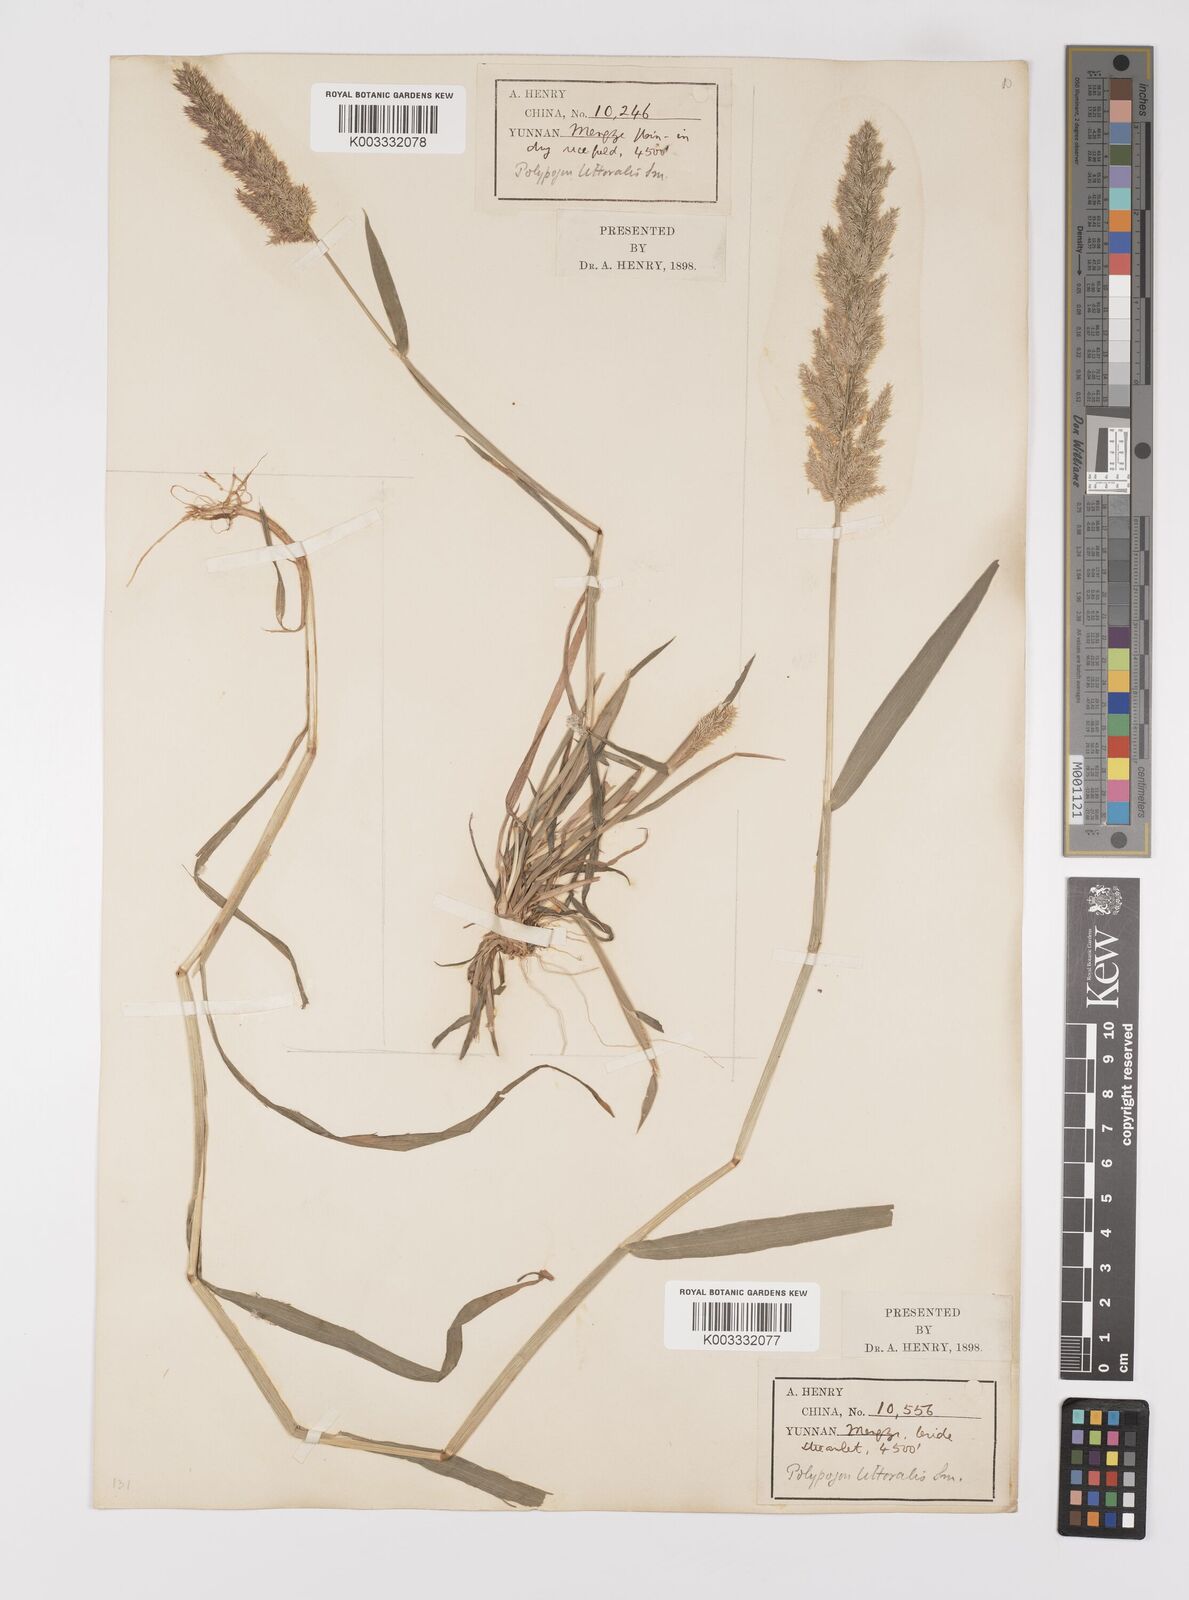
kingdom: Plantae
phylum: Tracheophyta
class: Liliopsida
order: Poales
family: Poaceae
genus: Polypogon
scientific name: Polypogon fugax
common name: Asia minor bluegrass
